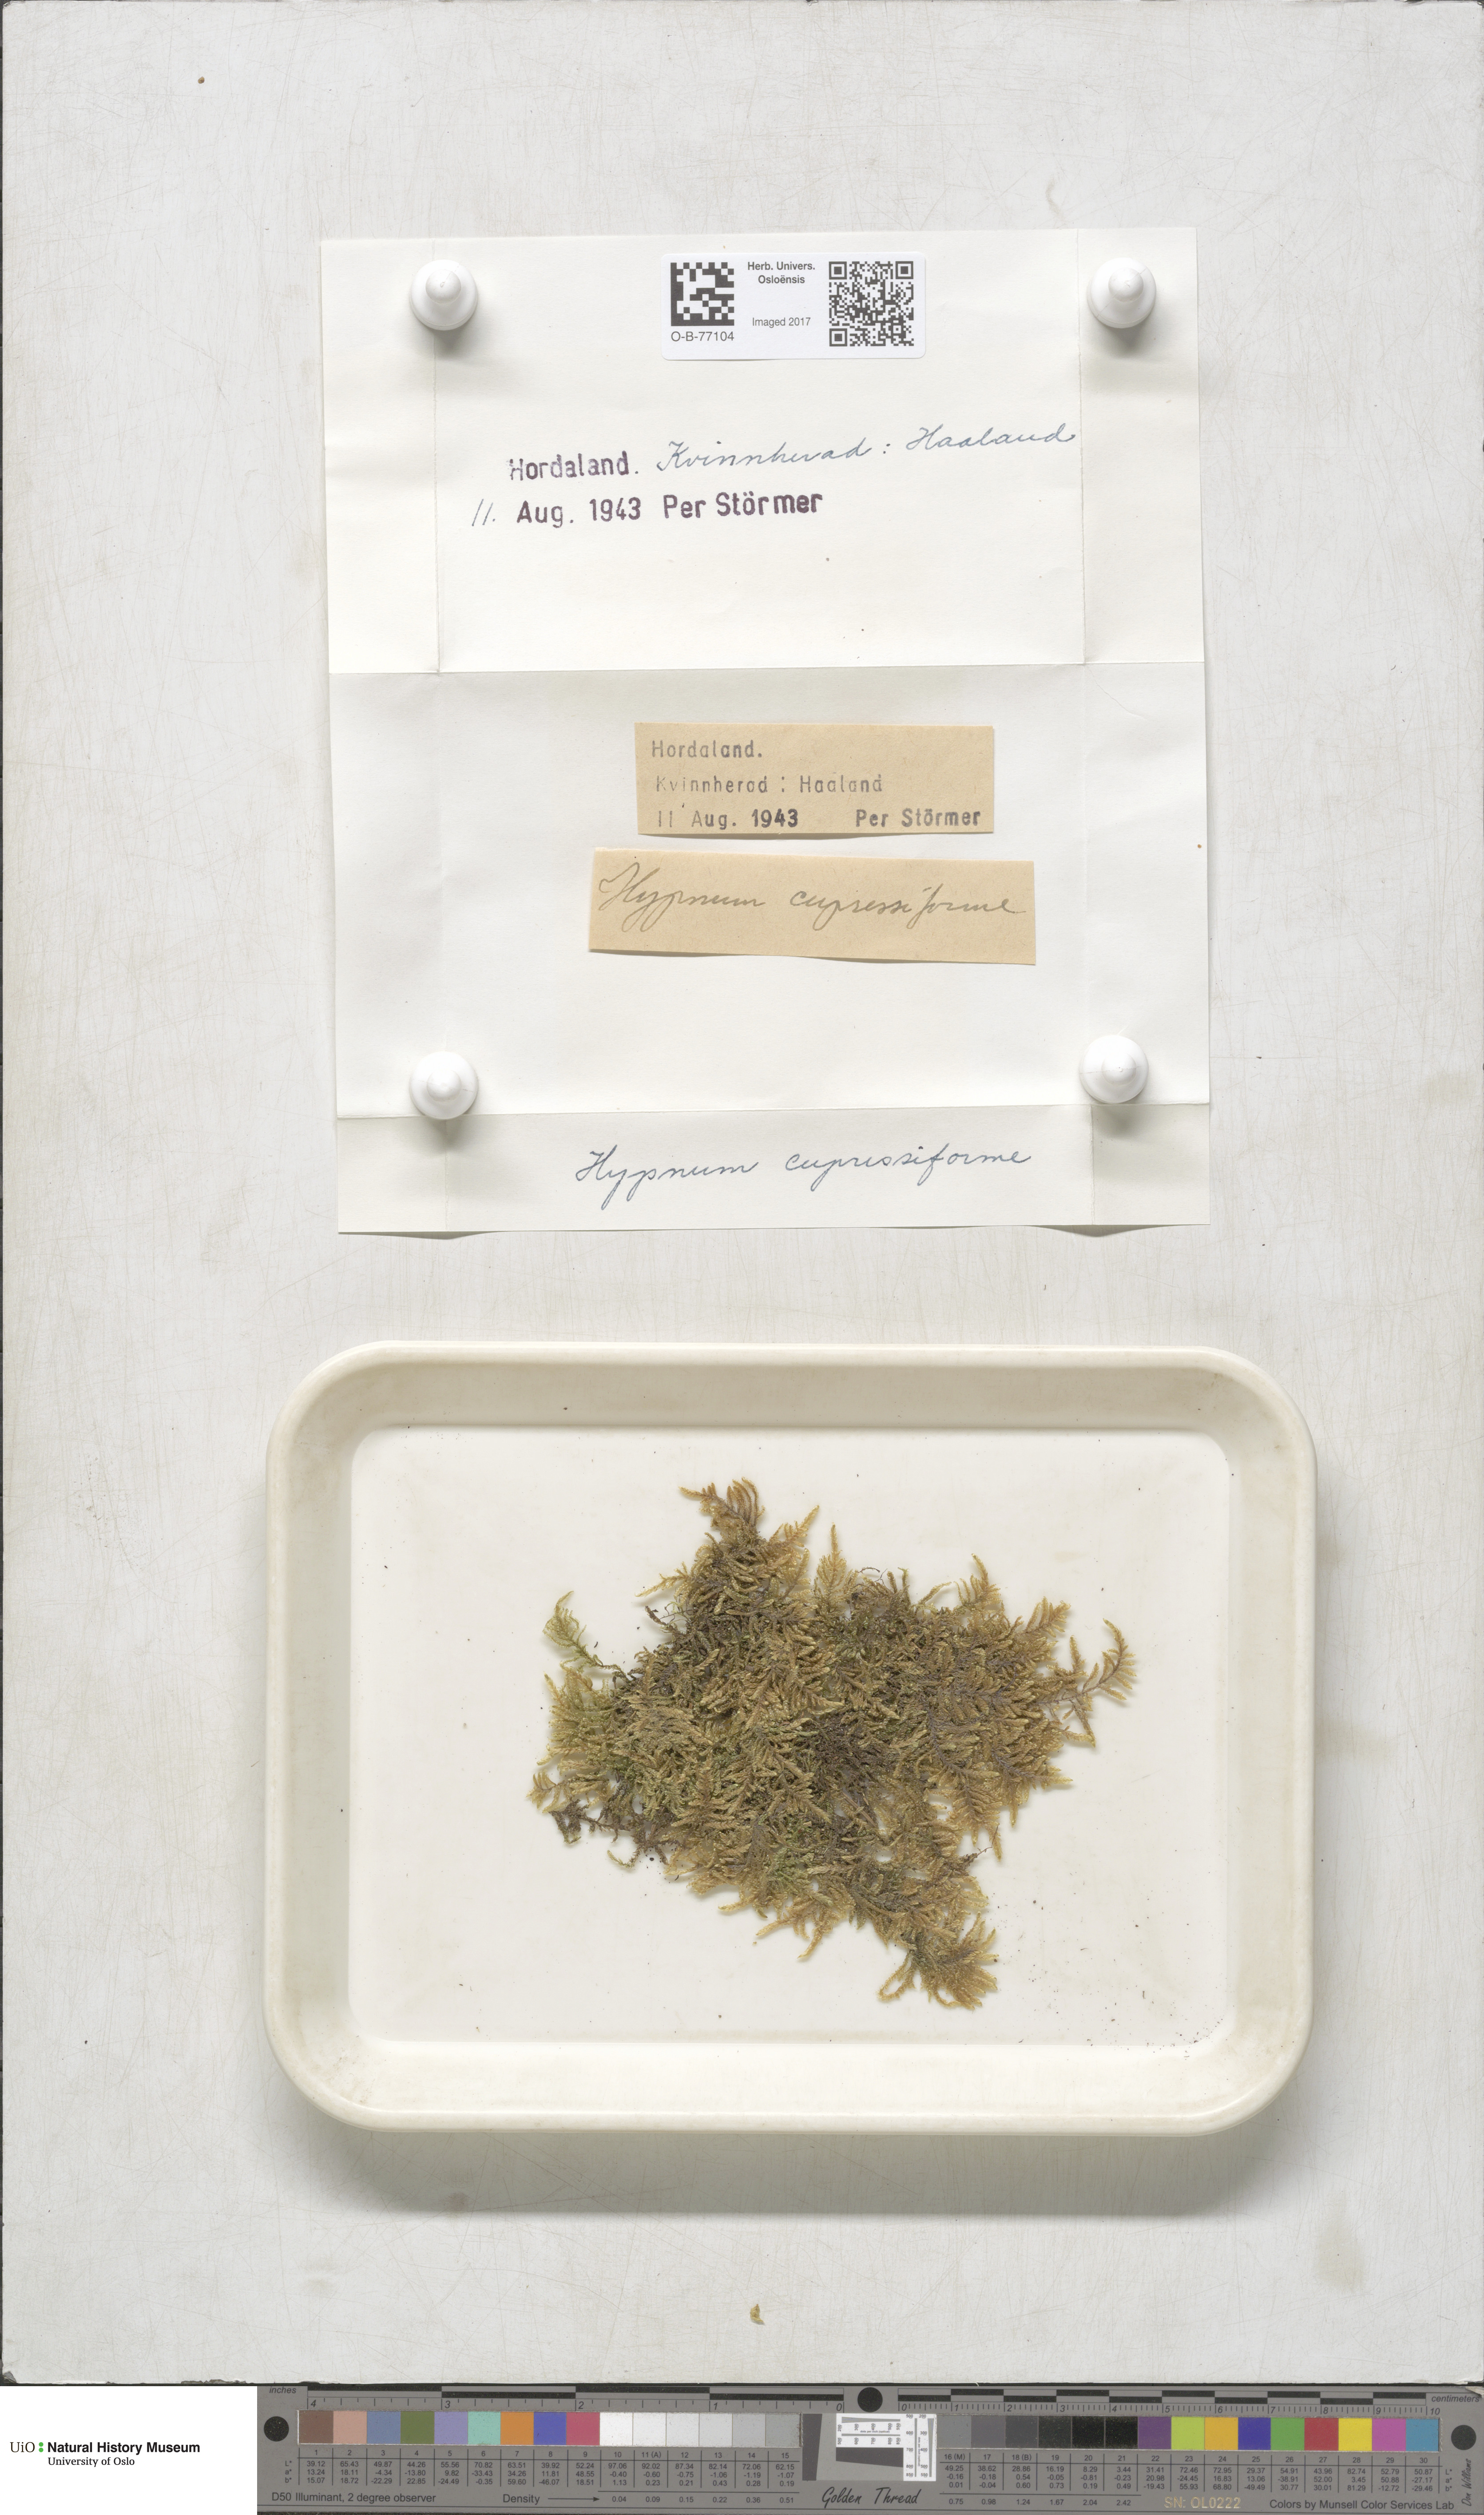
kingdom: Plantae
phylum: Bryophyta
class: Bryopsida
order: Hypnales
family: Hypnaceae
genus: Hypnum
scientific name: Hypnum cupressiforme
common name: Cypress-leaved plait-moss
